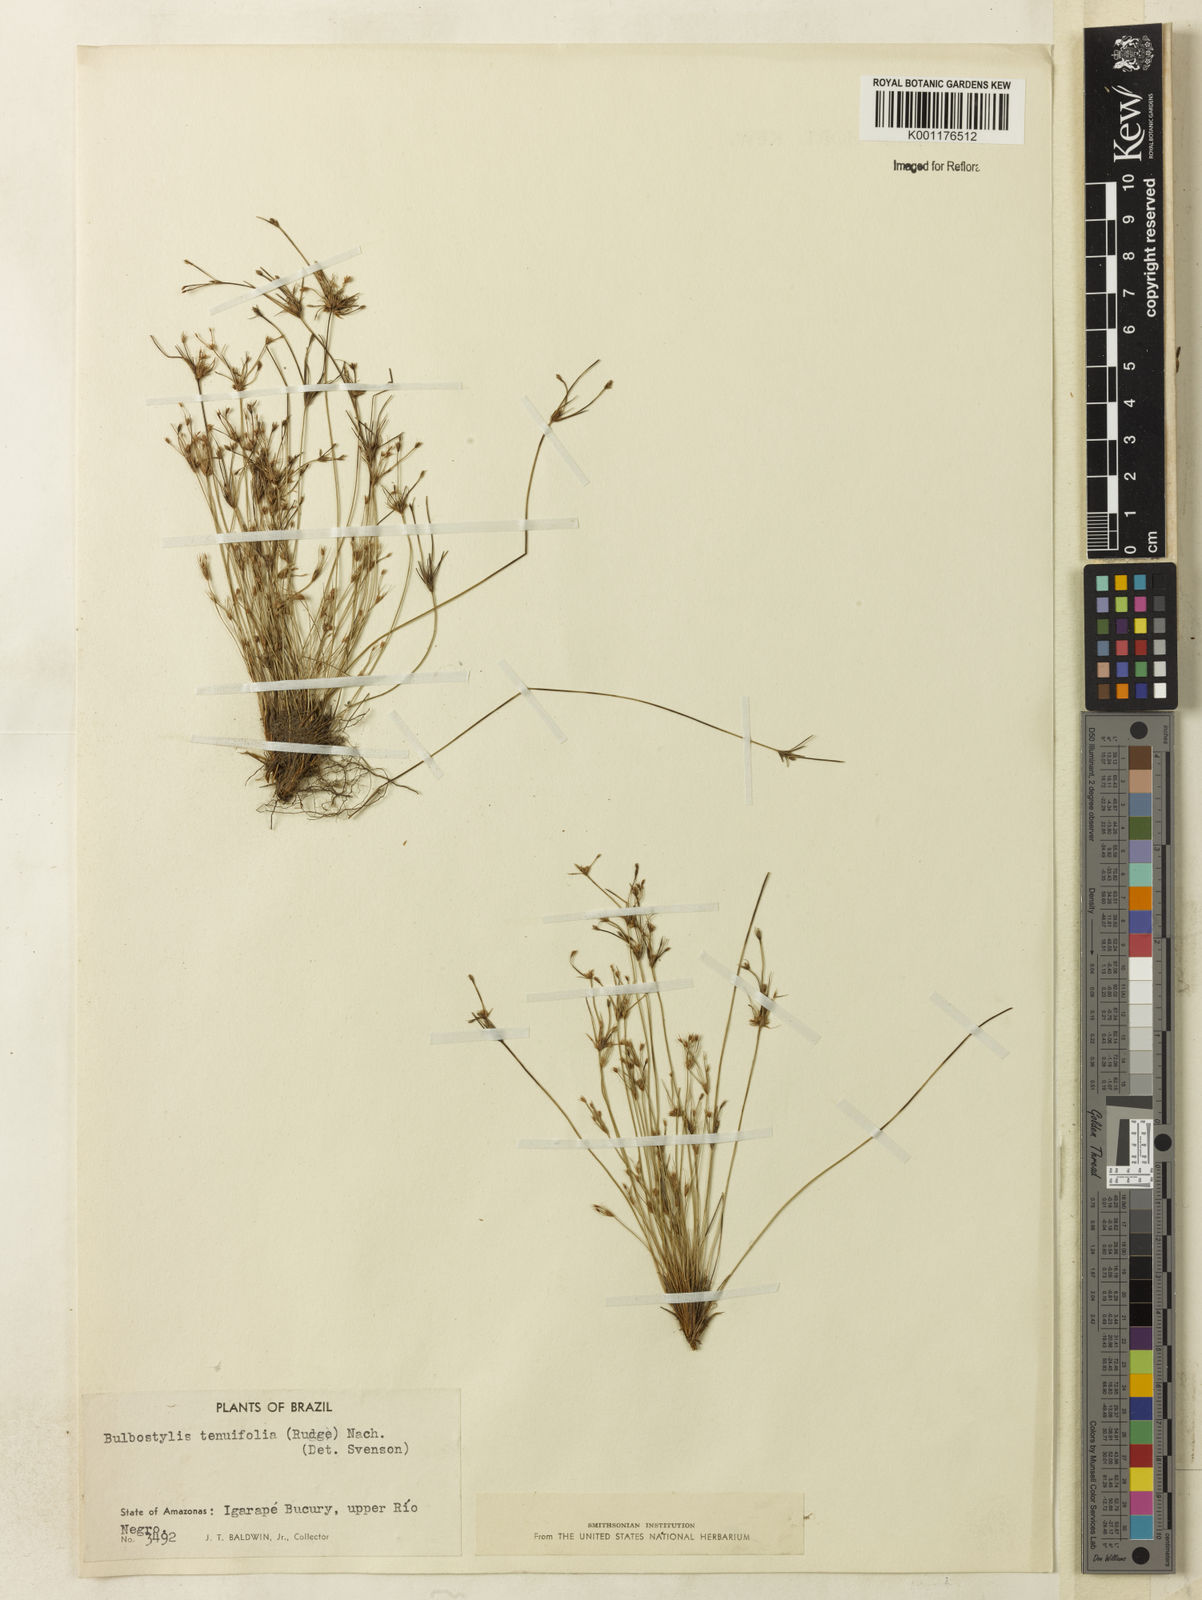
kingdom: Plantae
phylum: Tracheophyta
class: Liliopsida
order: Poales
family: Cyperaceae
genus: Bulbostylis
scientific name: Bulbostylis tenuifolia
